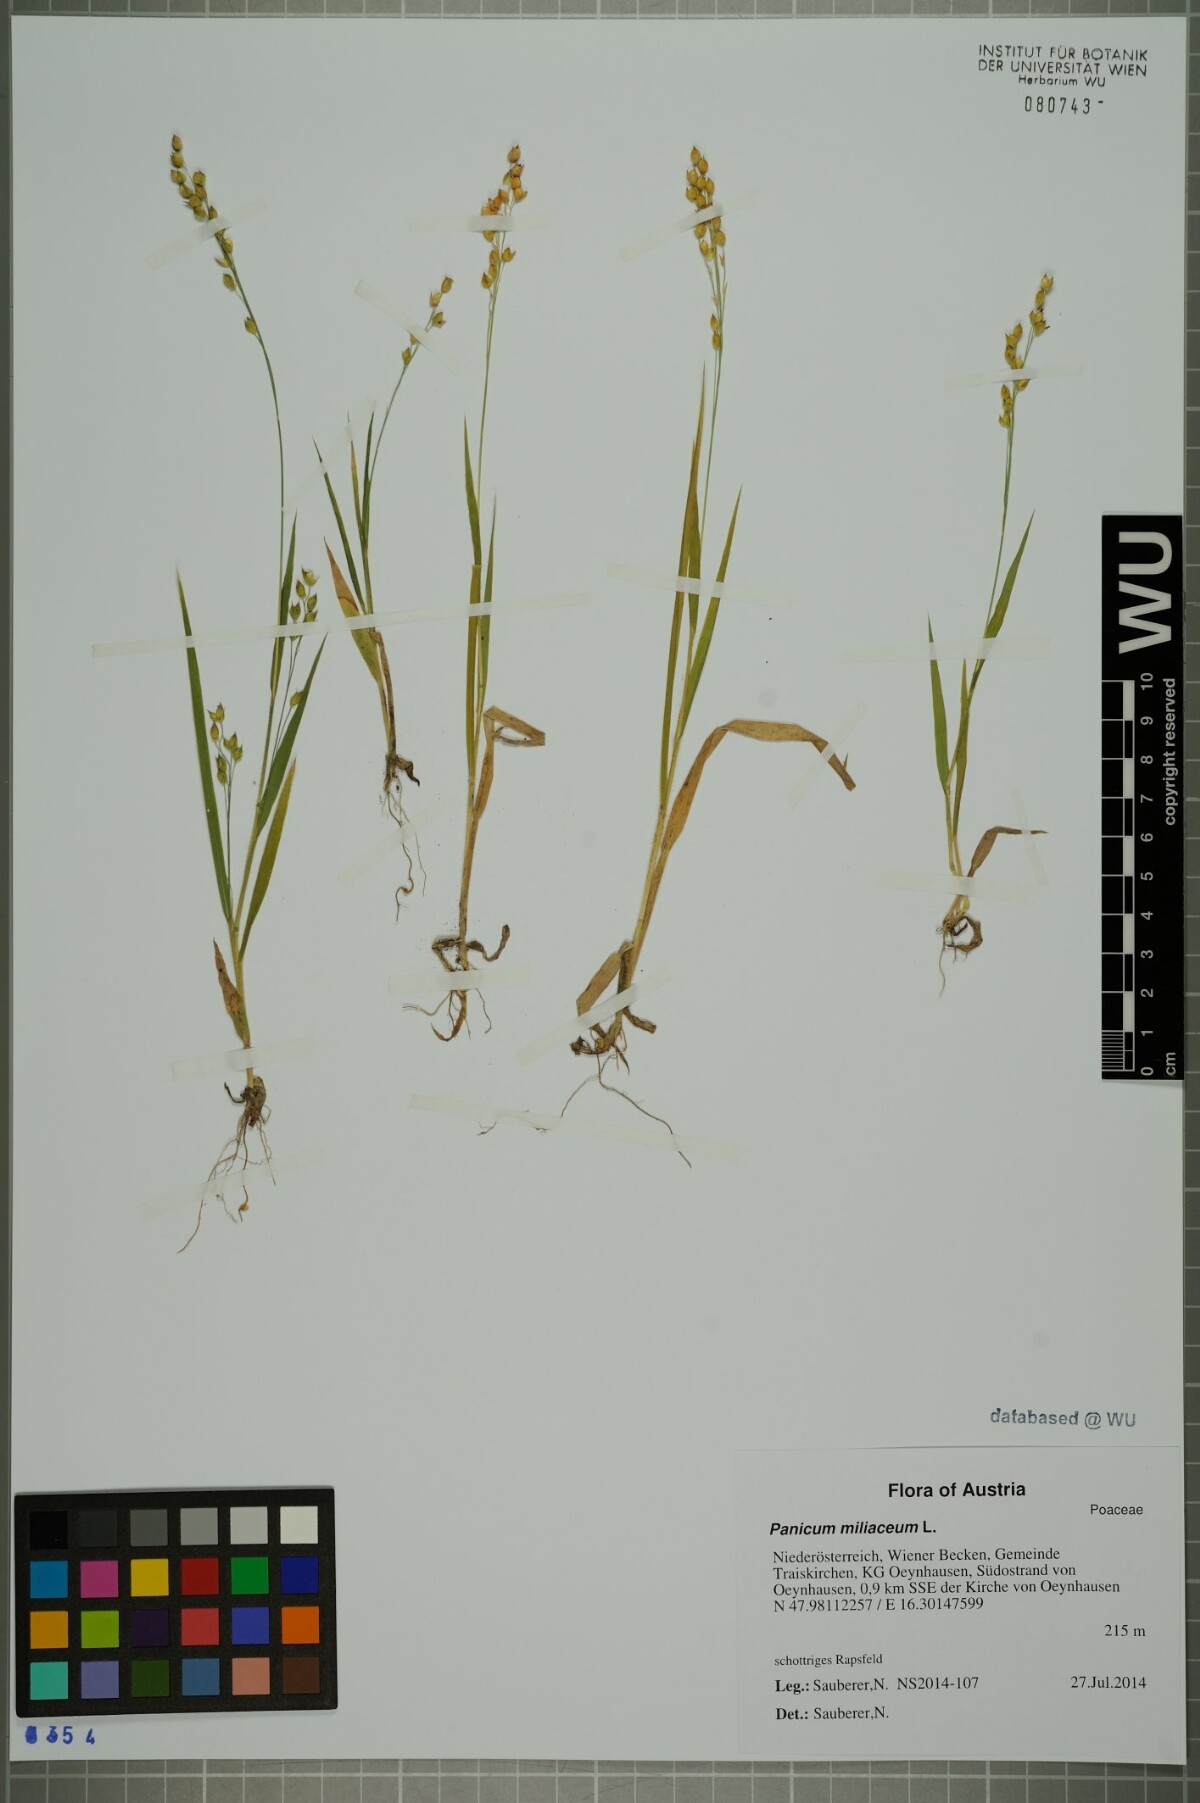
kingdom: Plantae
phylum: Tracheophyta
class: Liliopsida
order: Poales
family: Poaceae
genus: Panicum
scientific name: Panicum miliaceum
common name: Common millet
